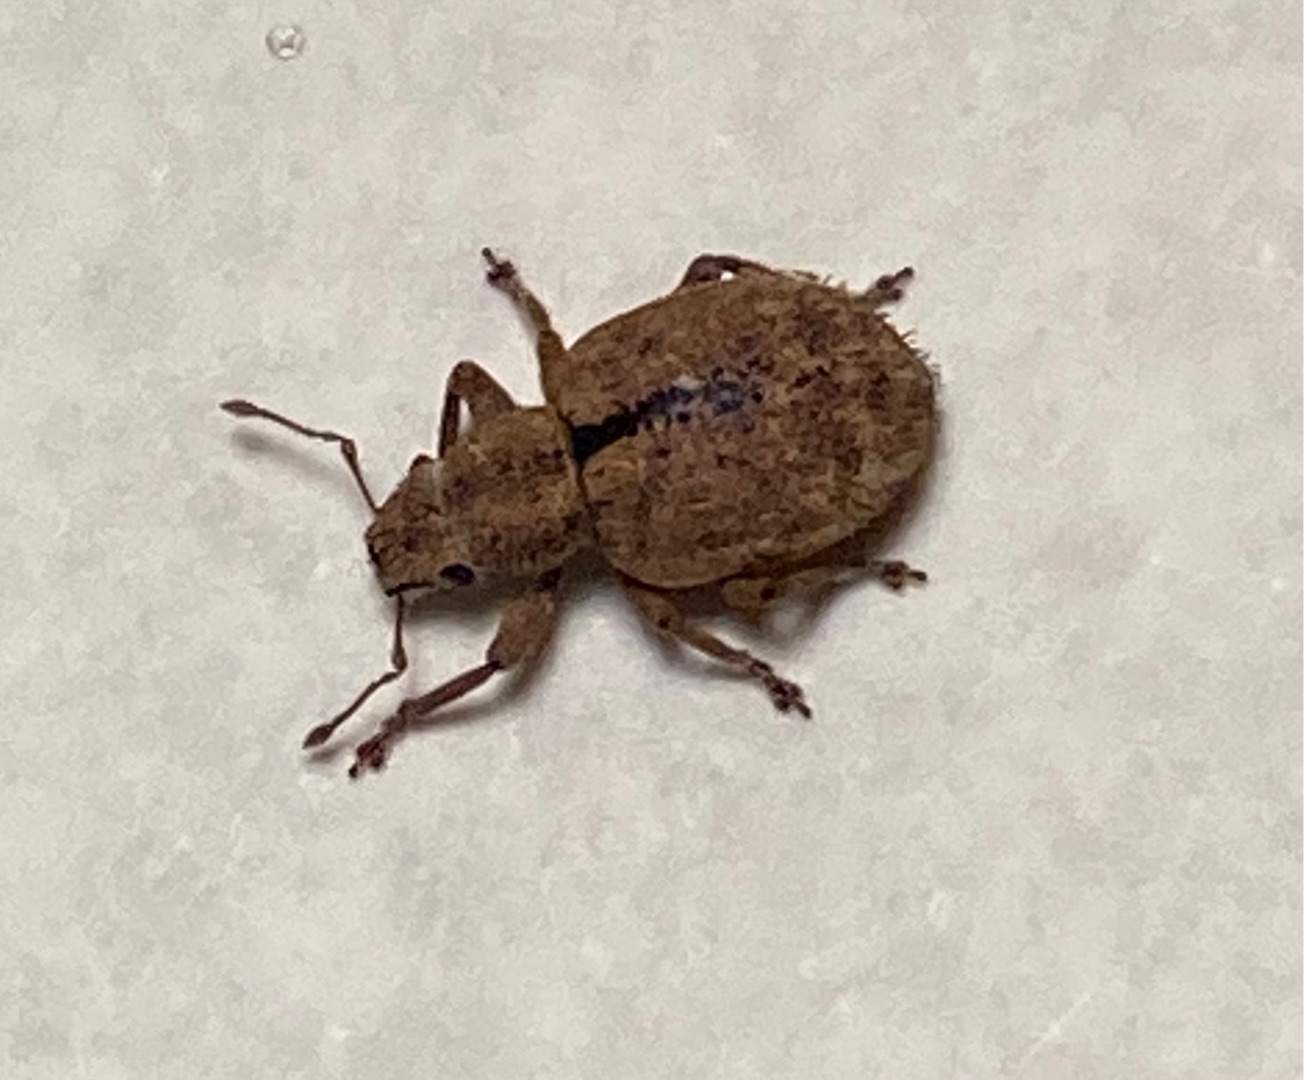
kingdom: Animalia
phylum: Arthropoda
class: Insecta
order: Coleoptera
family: Curculionidae
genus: Strophosoma
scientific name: Strophosoma melanogrammum
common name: Stribet gråsnude
